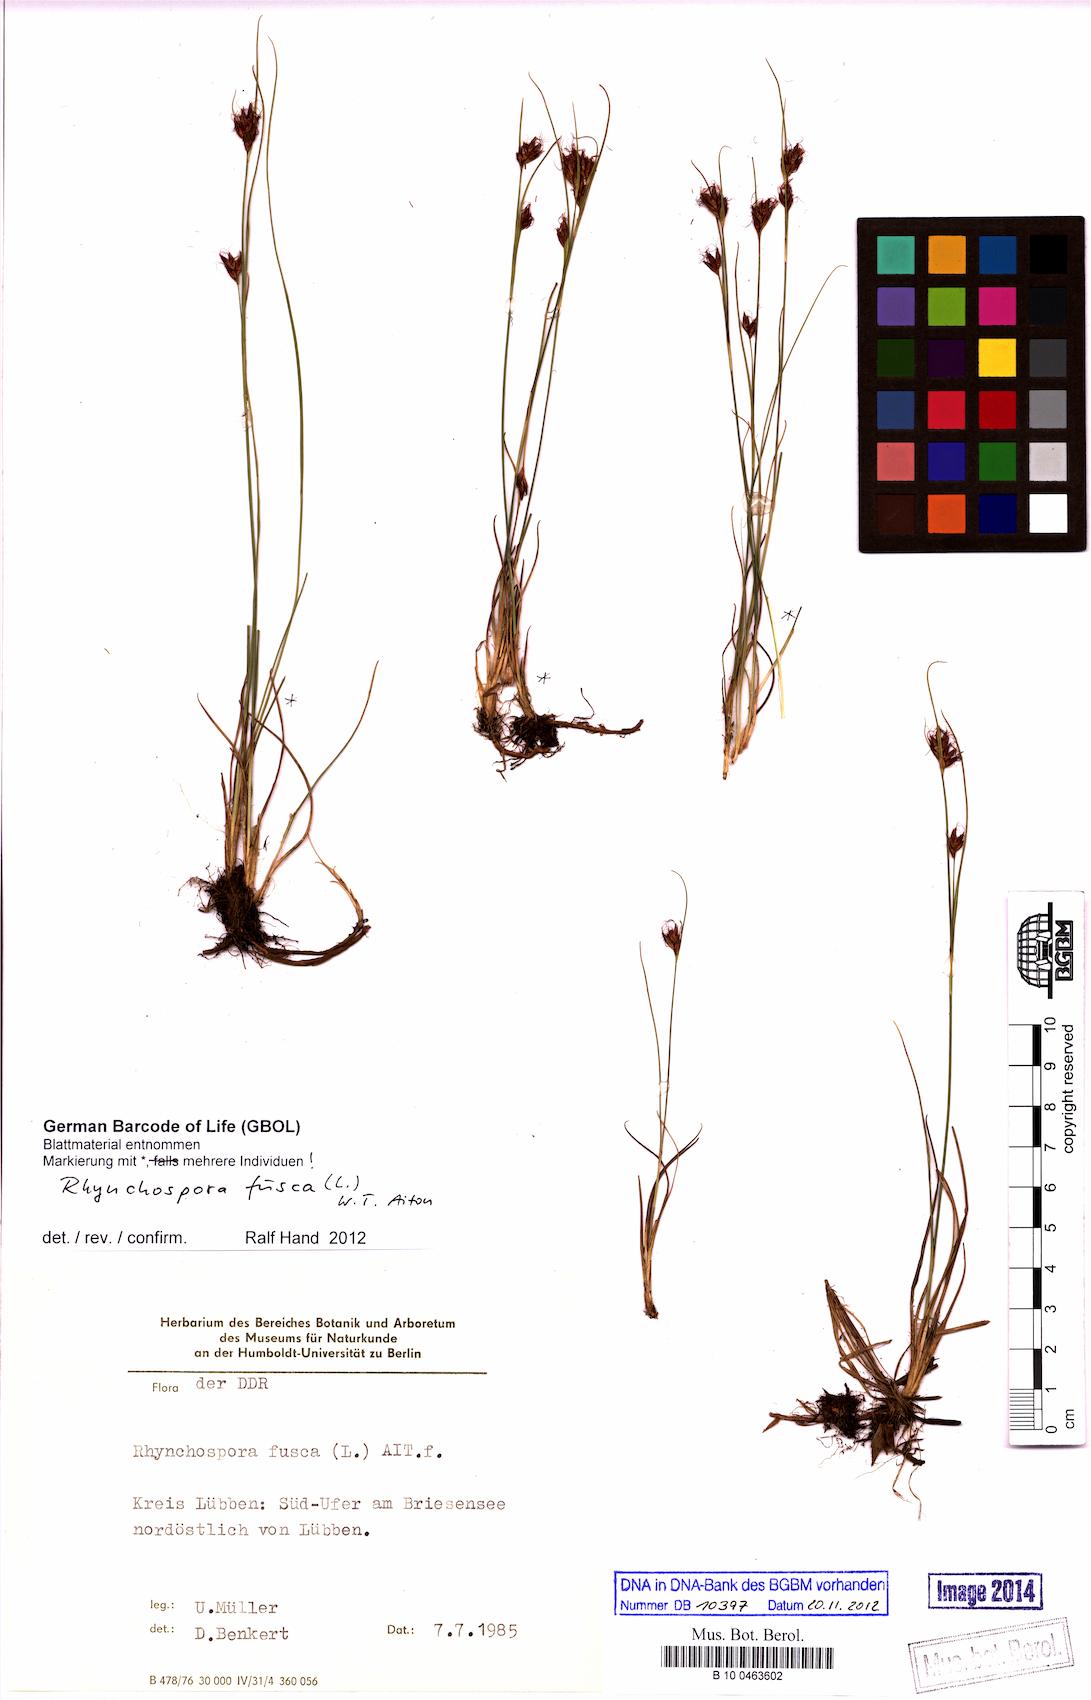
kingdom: Plantae
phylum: Tracheophyta
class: Liliopsida
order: Poales
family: Cyperaceae
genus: Rhynchospora
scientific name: Rhynchospora fusca
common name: Brown beak-sedge
